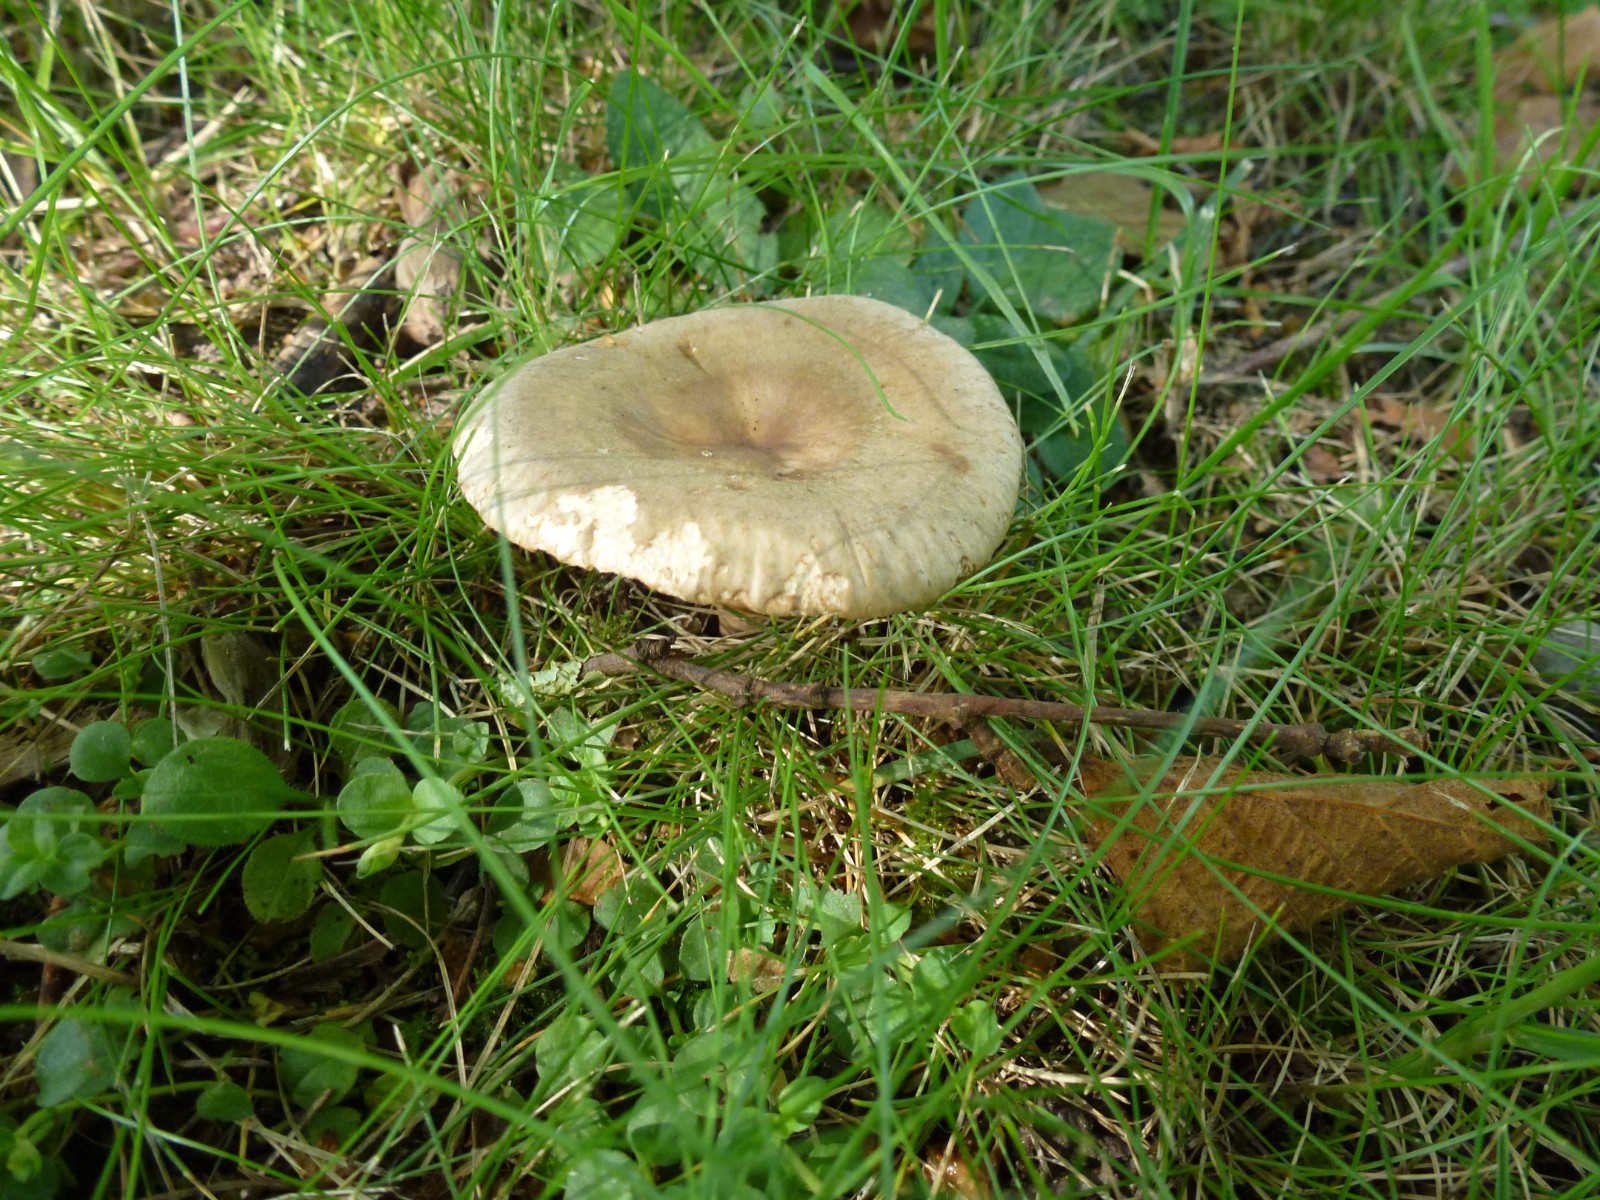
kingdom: Fungi
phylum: Basidiomycota
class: Agaricomycetes
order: Russulales
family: Russulaceae
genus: Lactarius
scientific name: Lactarius pyrogalus
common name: hassel-mælkehat
